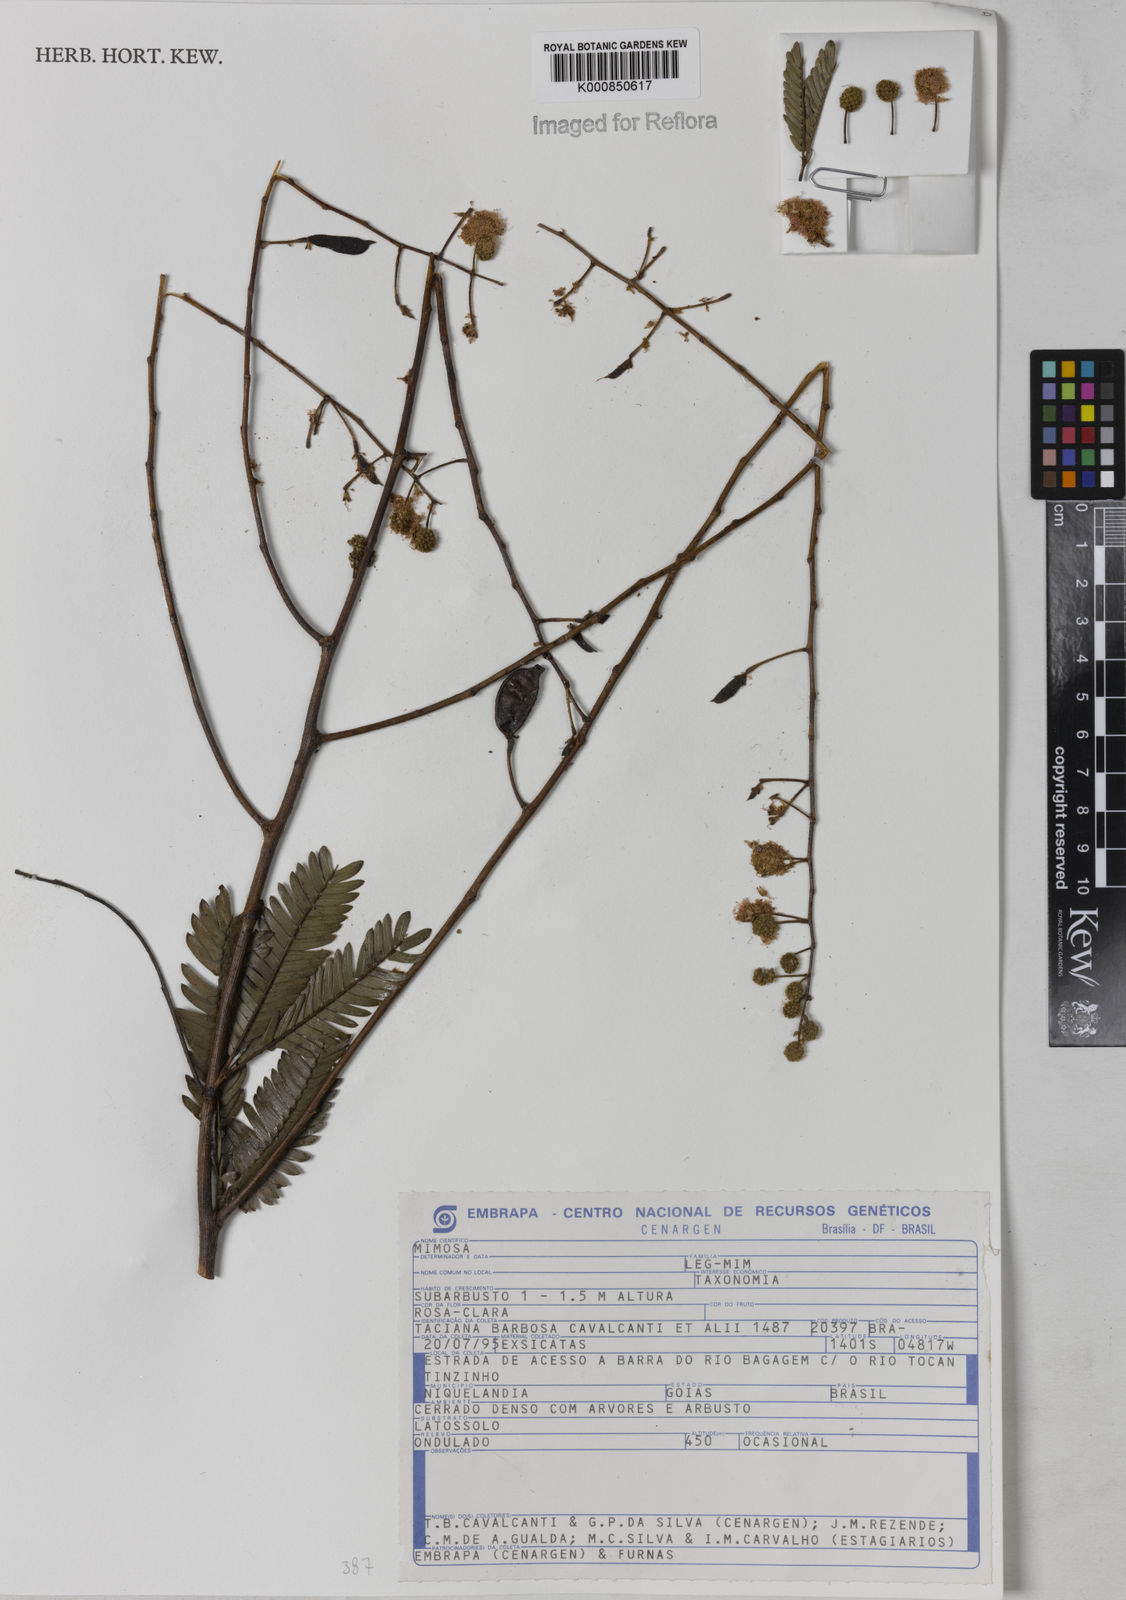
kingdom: Plantae
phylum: Tracheophyta
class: Magnoliopsida
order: Fabales
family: Fabaceae
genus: Mimosa
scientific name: Mimosa nitens
